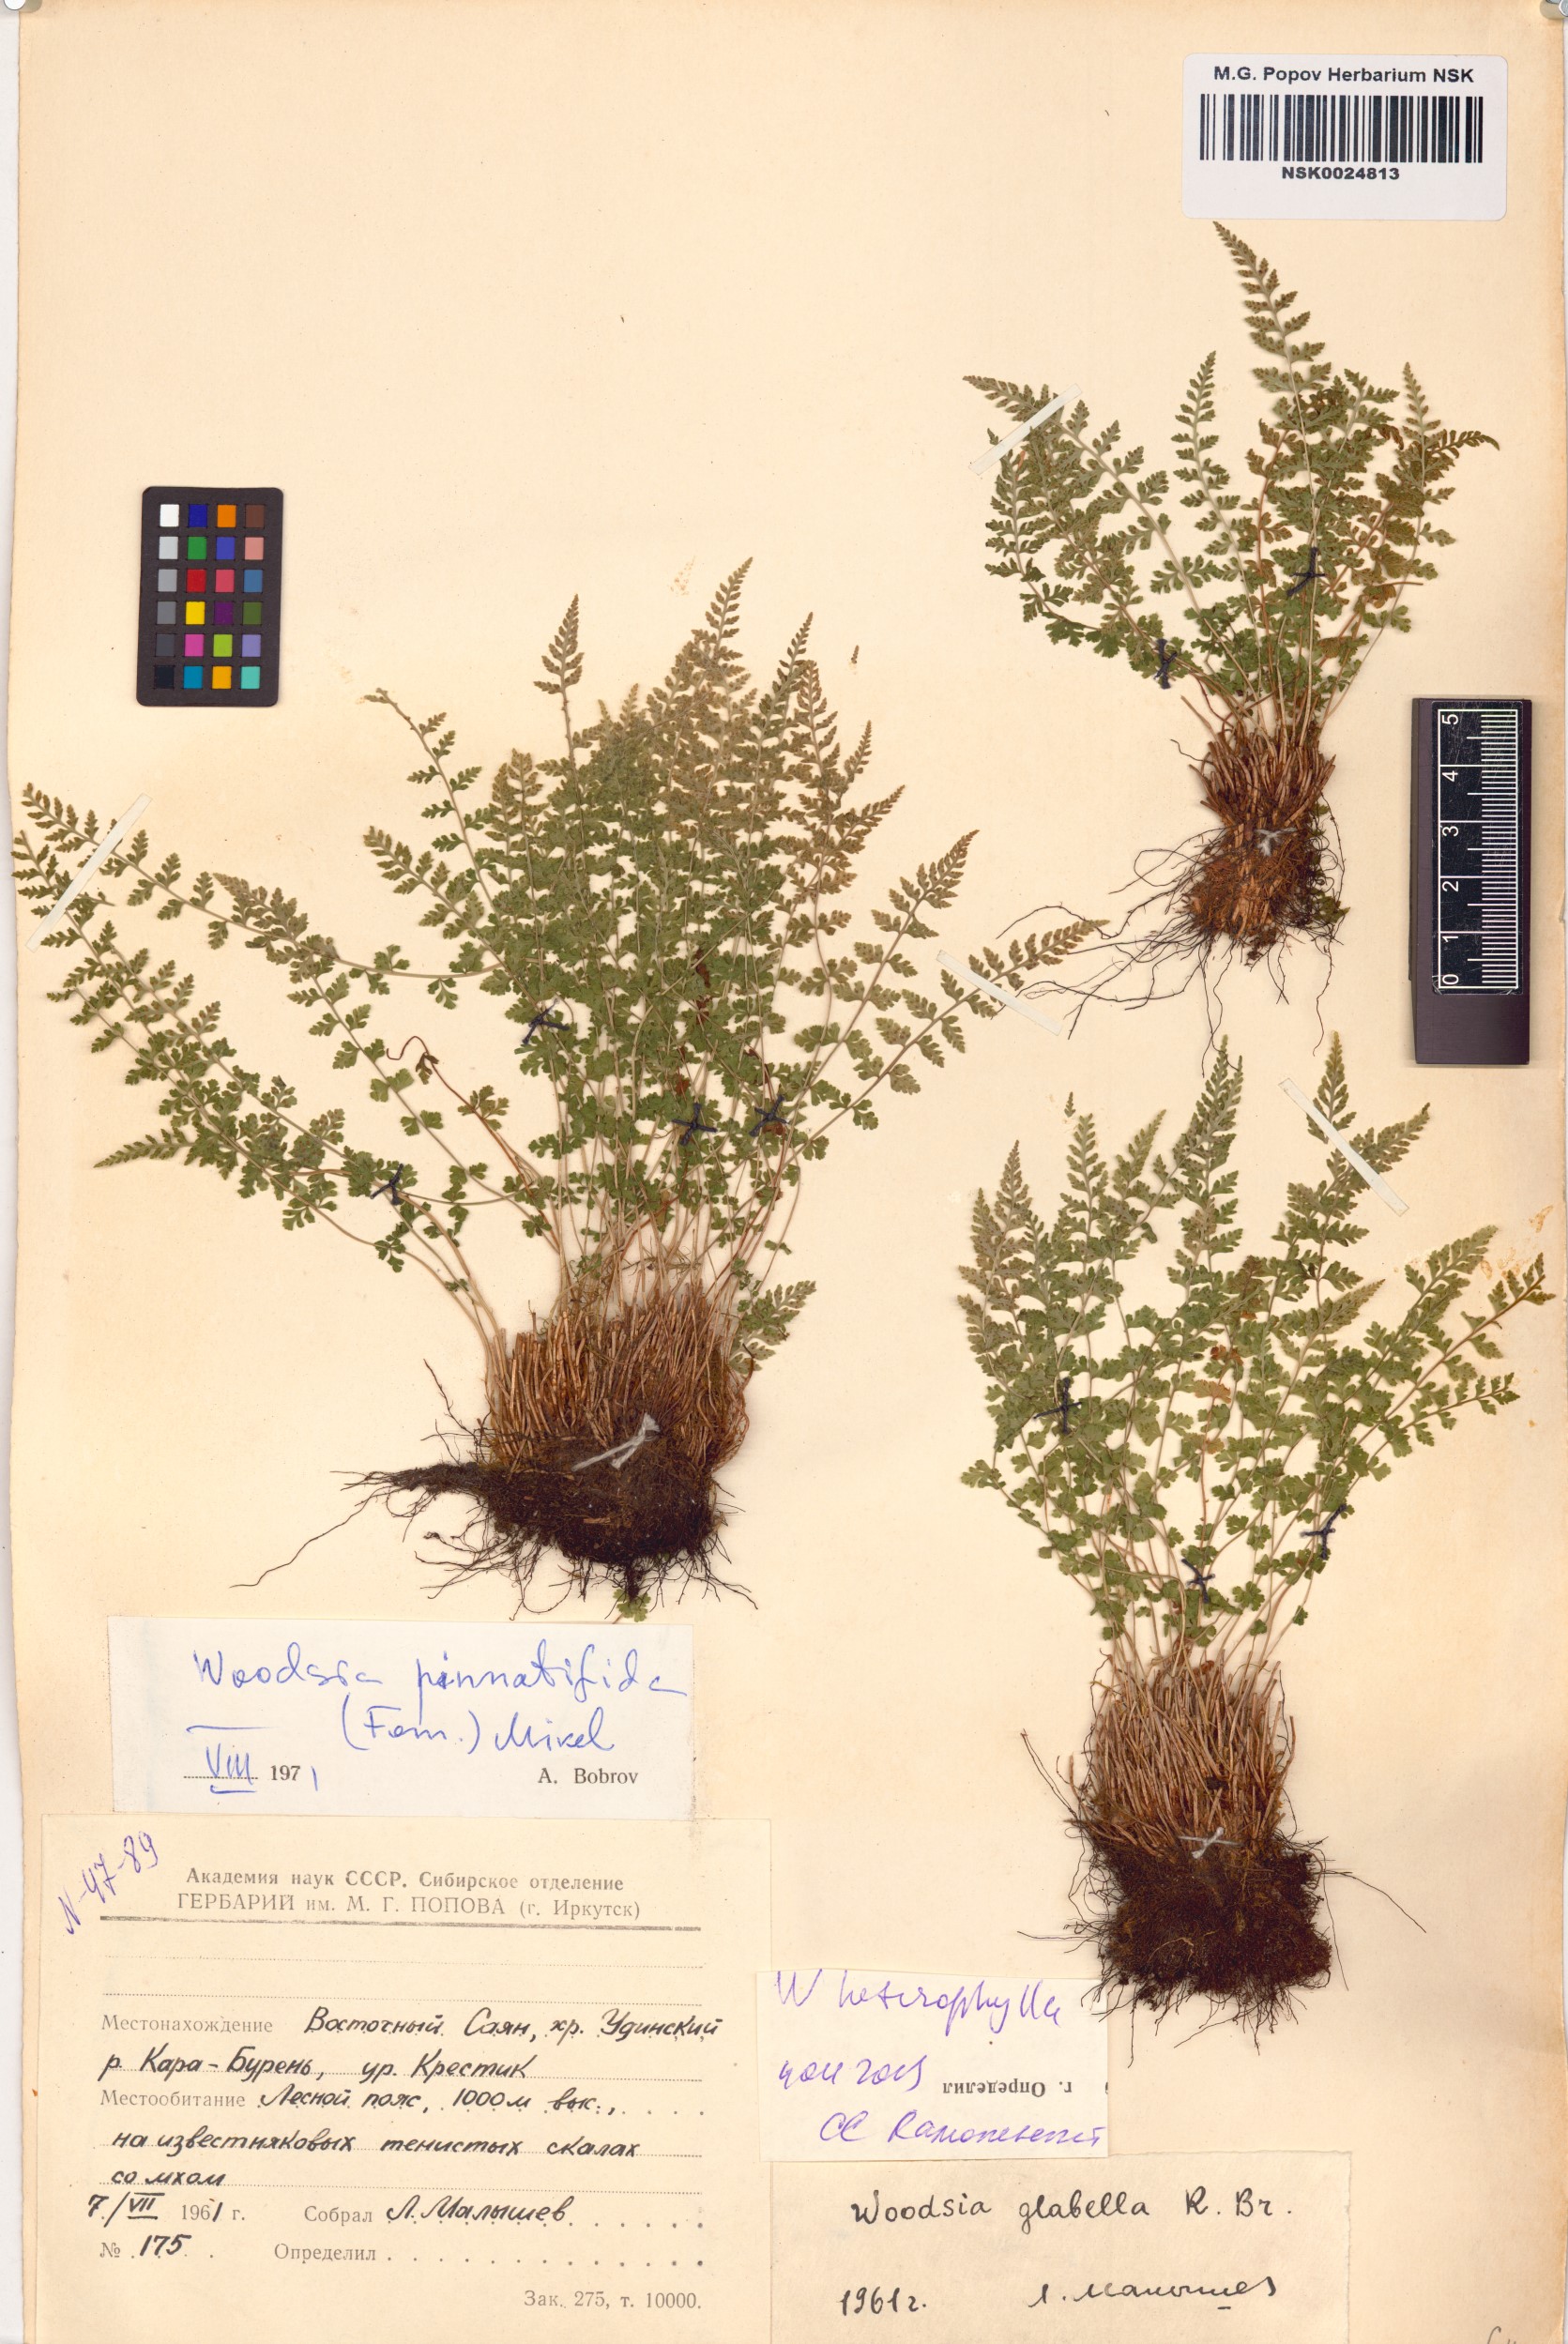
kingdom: Plantae
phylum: Tracheophyta
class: Polypodiopsida
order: Polypodiales
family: Woodsiaceae
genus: Woodsia
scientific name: Woodsia pulchella
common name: Graceful woodsia
